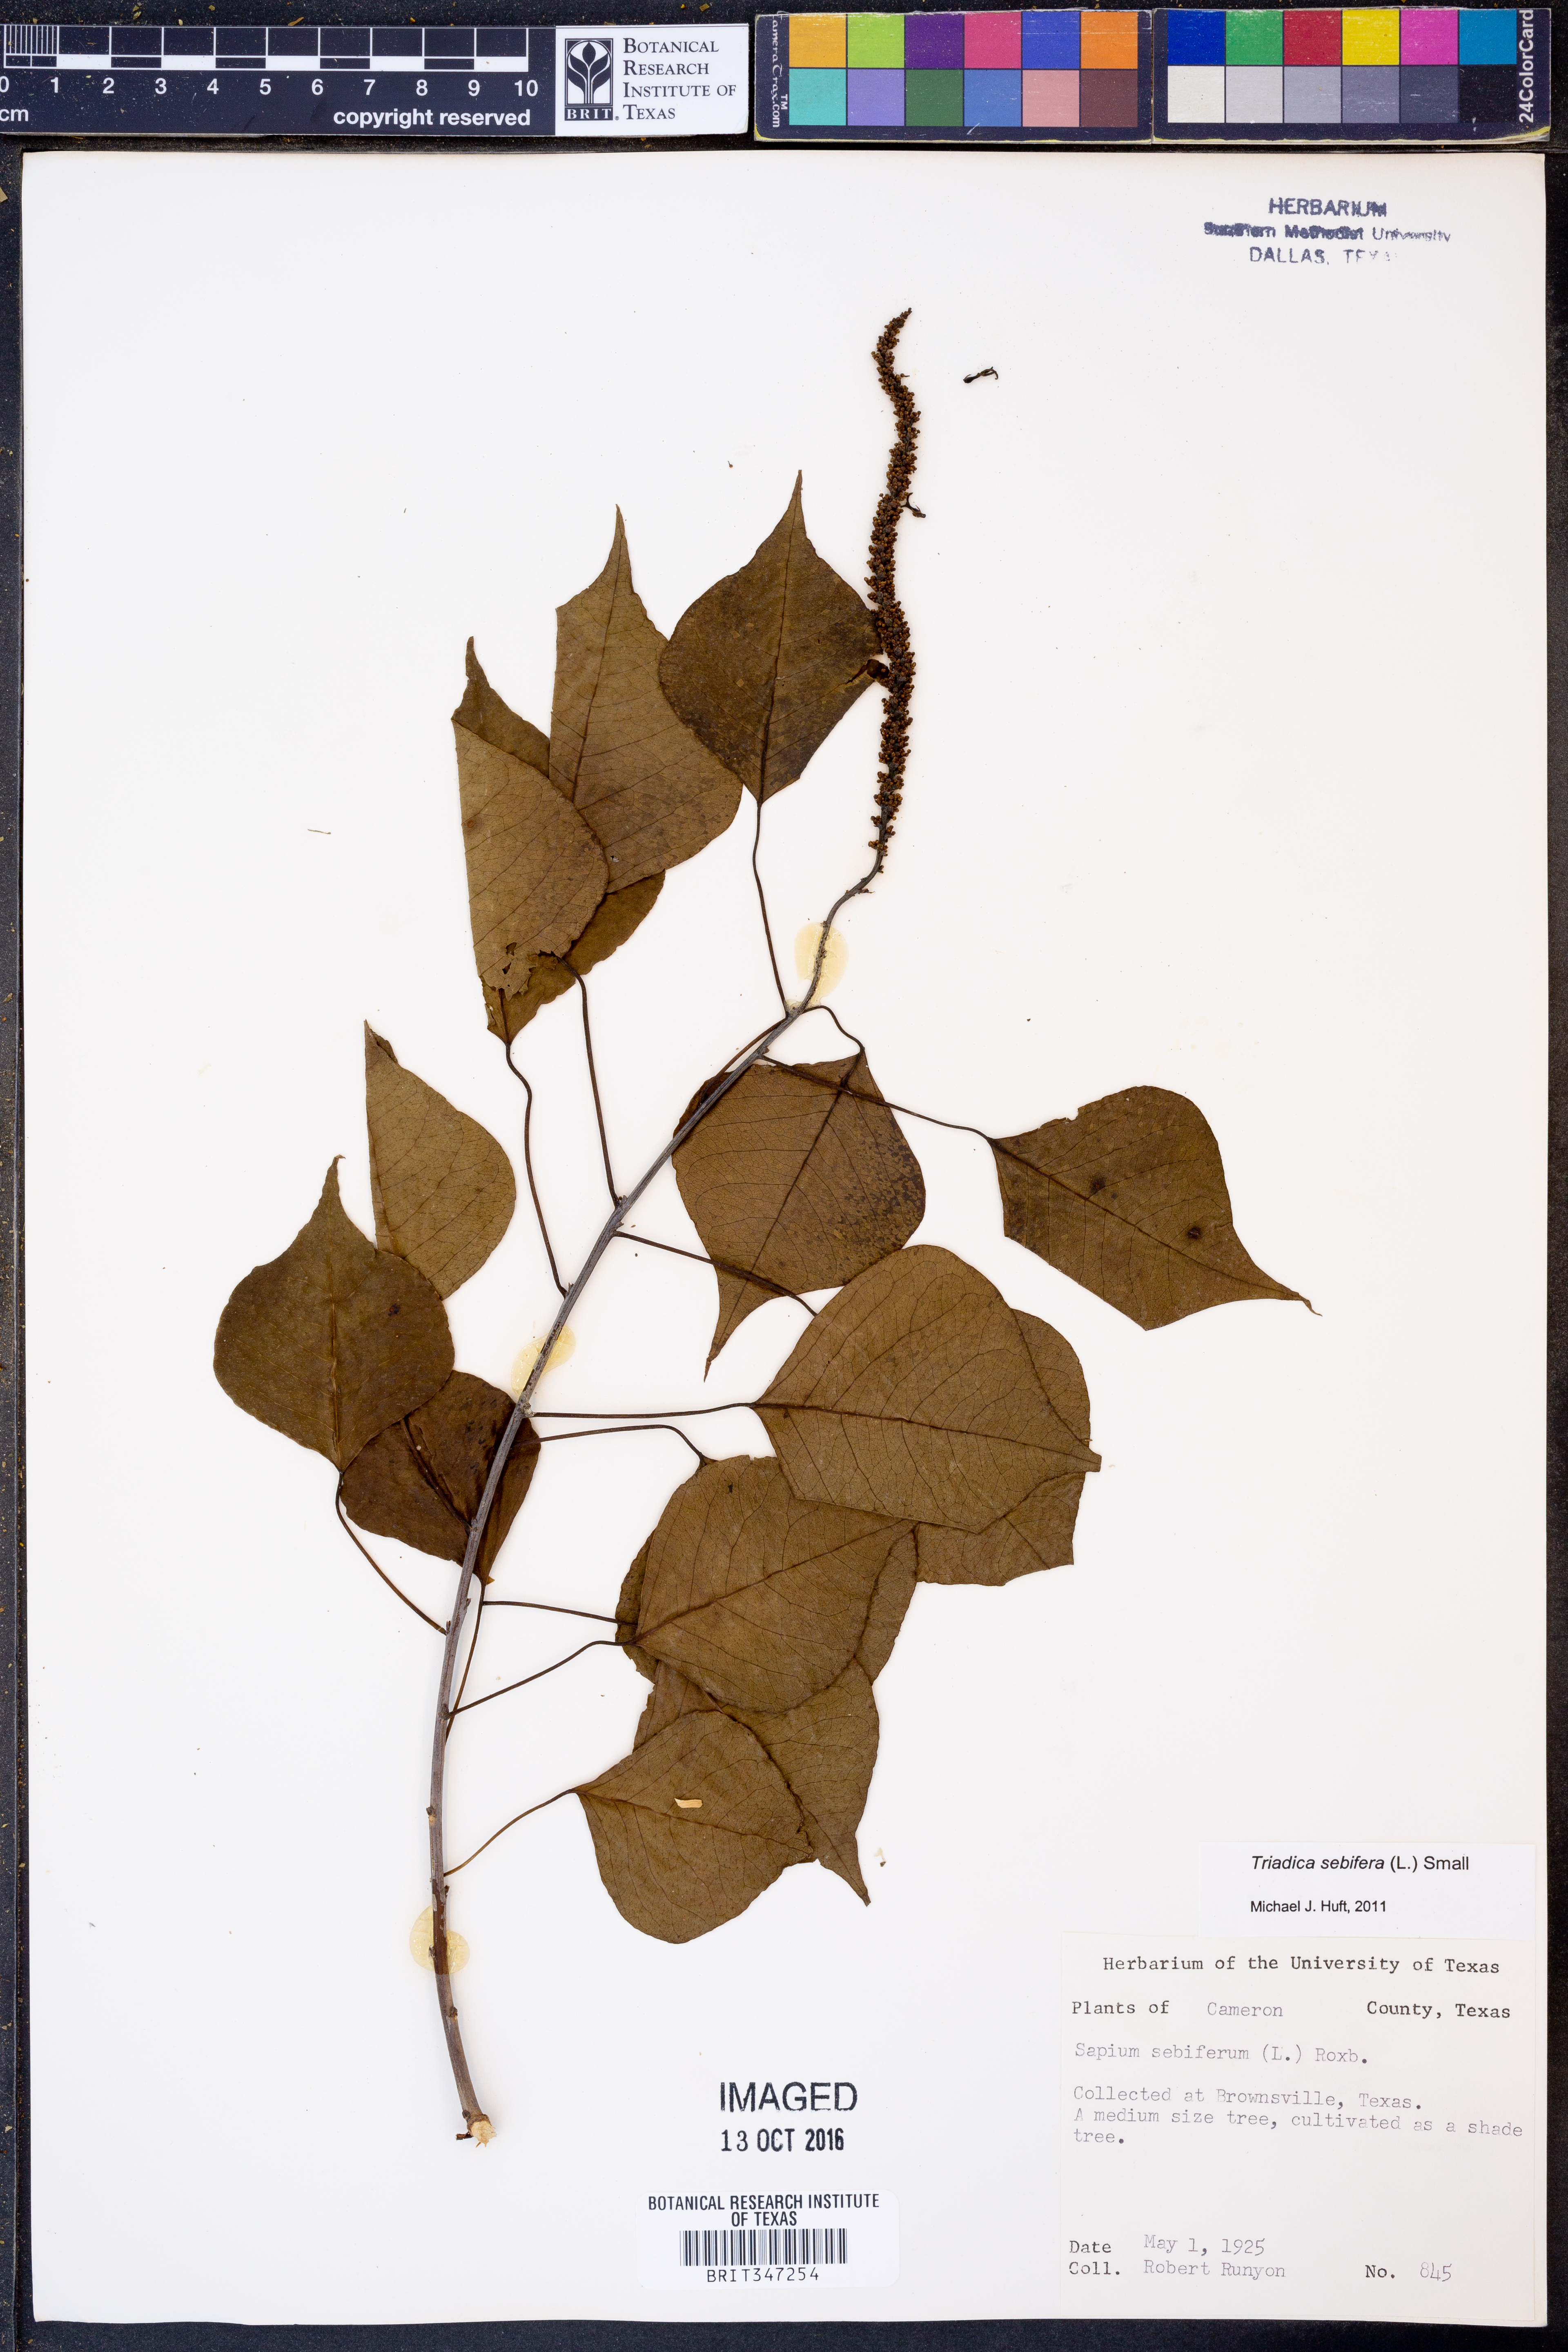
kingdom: Plantae
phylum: Tracheophyta
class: Magnoliopsida
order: Malpighiales
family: Euphorbiaceae
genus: Triadica
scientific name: Triadica sebifera
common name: Chinese tallow
